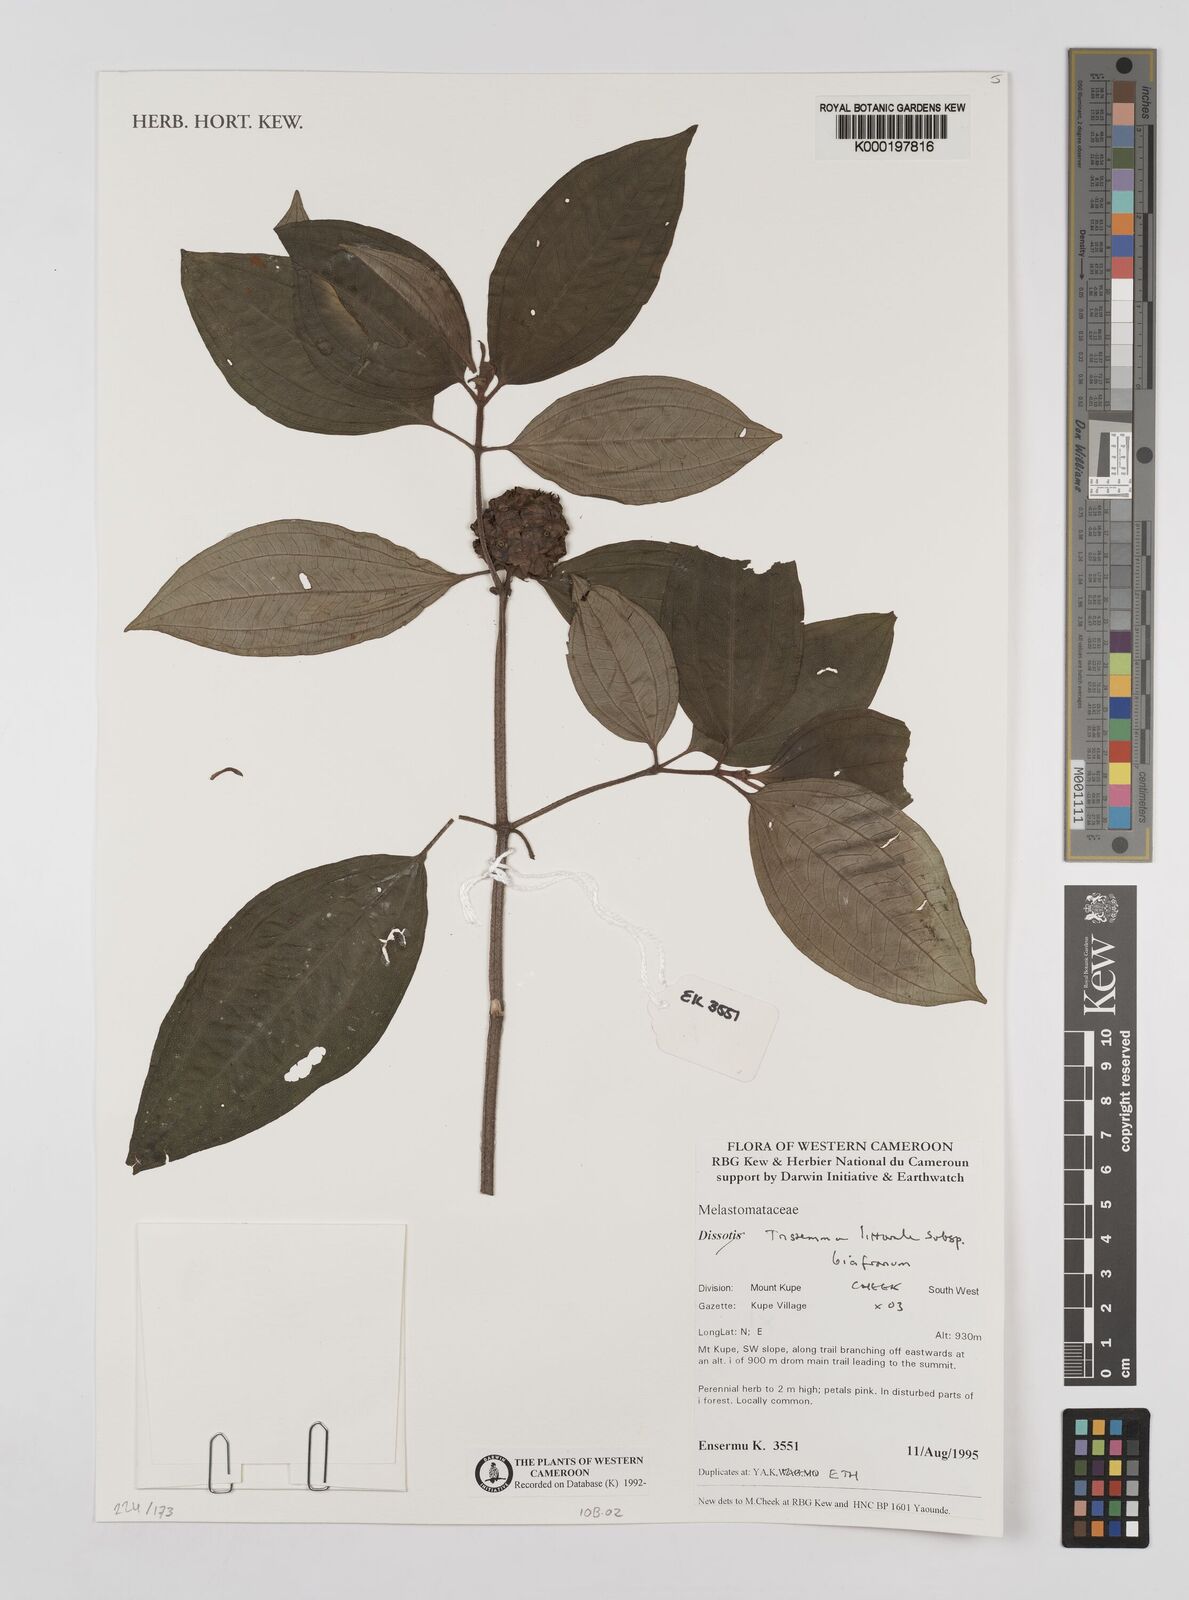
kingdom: Plantae
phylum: Tracheophyta
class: Magnoliopsida
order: Myrtales
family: Melastomataceae
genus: Tristemma
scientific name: Tristemma littorale
